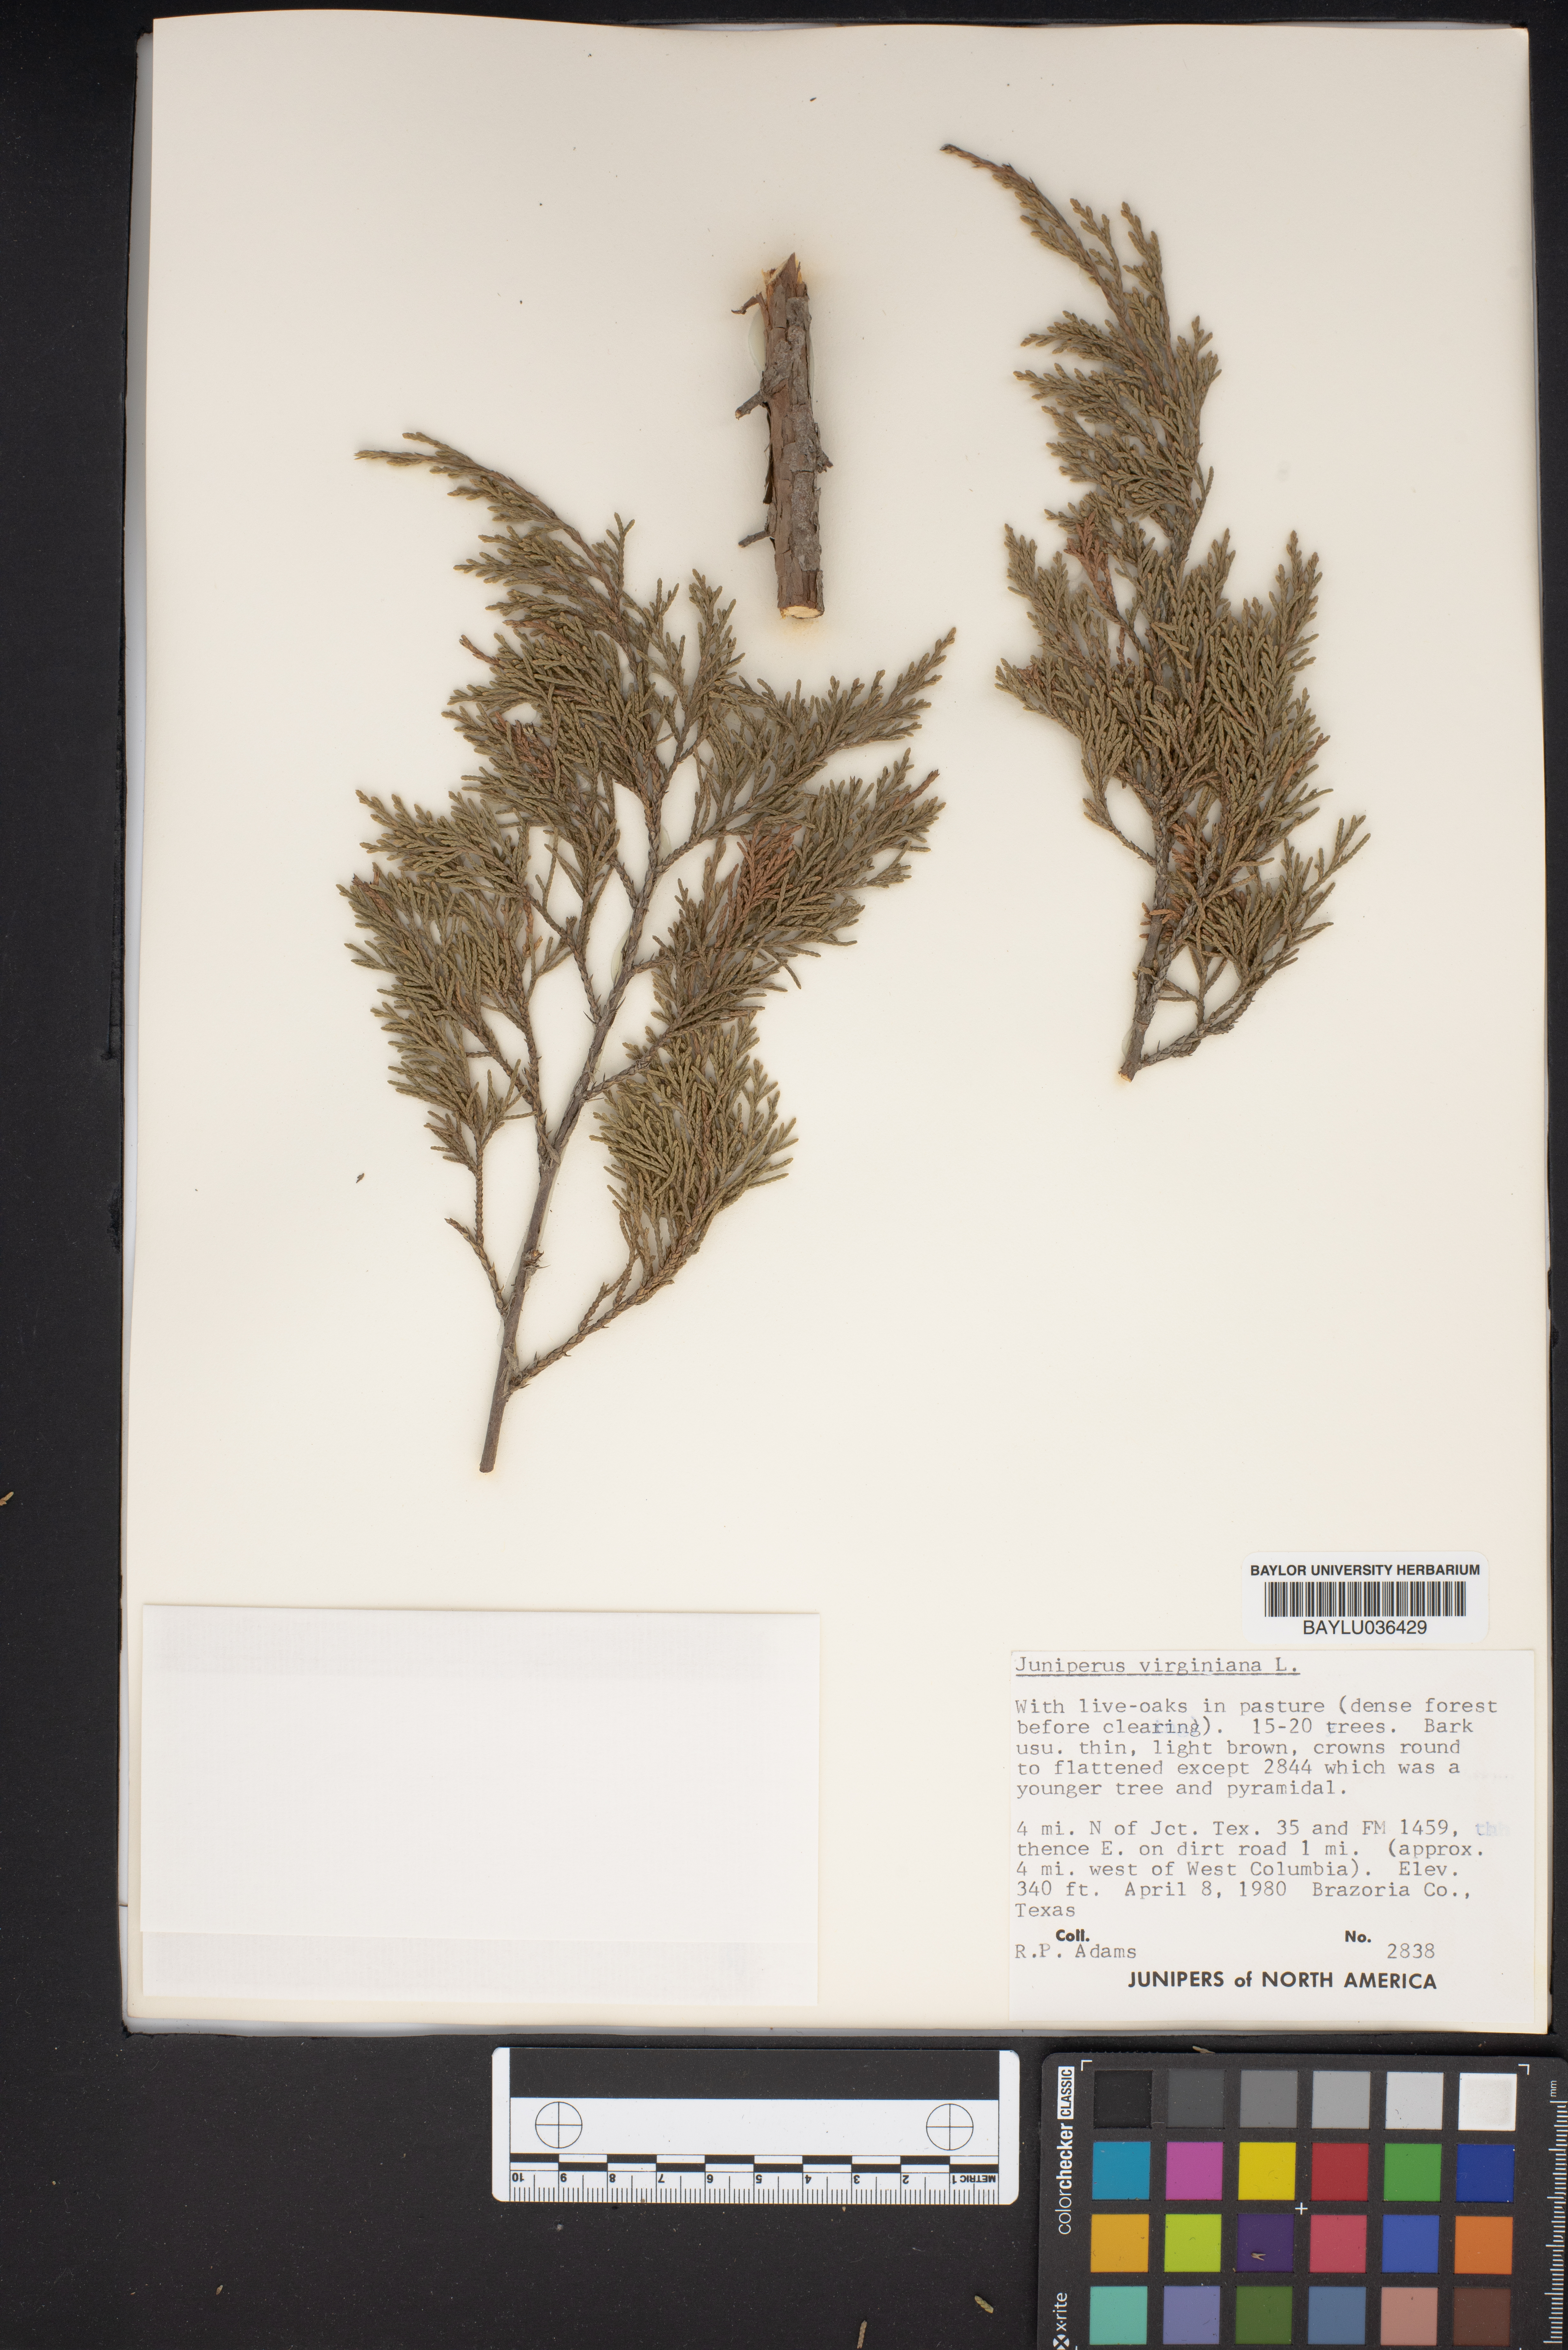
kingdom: Plantae
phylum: Tracheophyta
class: Pinopsida
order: Pinales
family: Cupressaceae
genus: Juniperus
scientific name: Juniperus virginiana
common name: Red juniper
